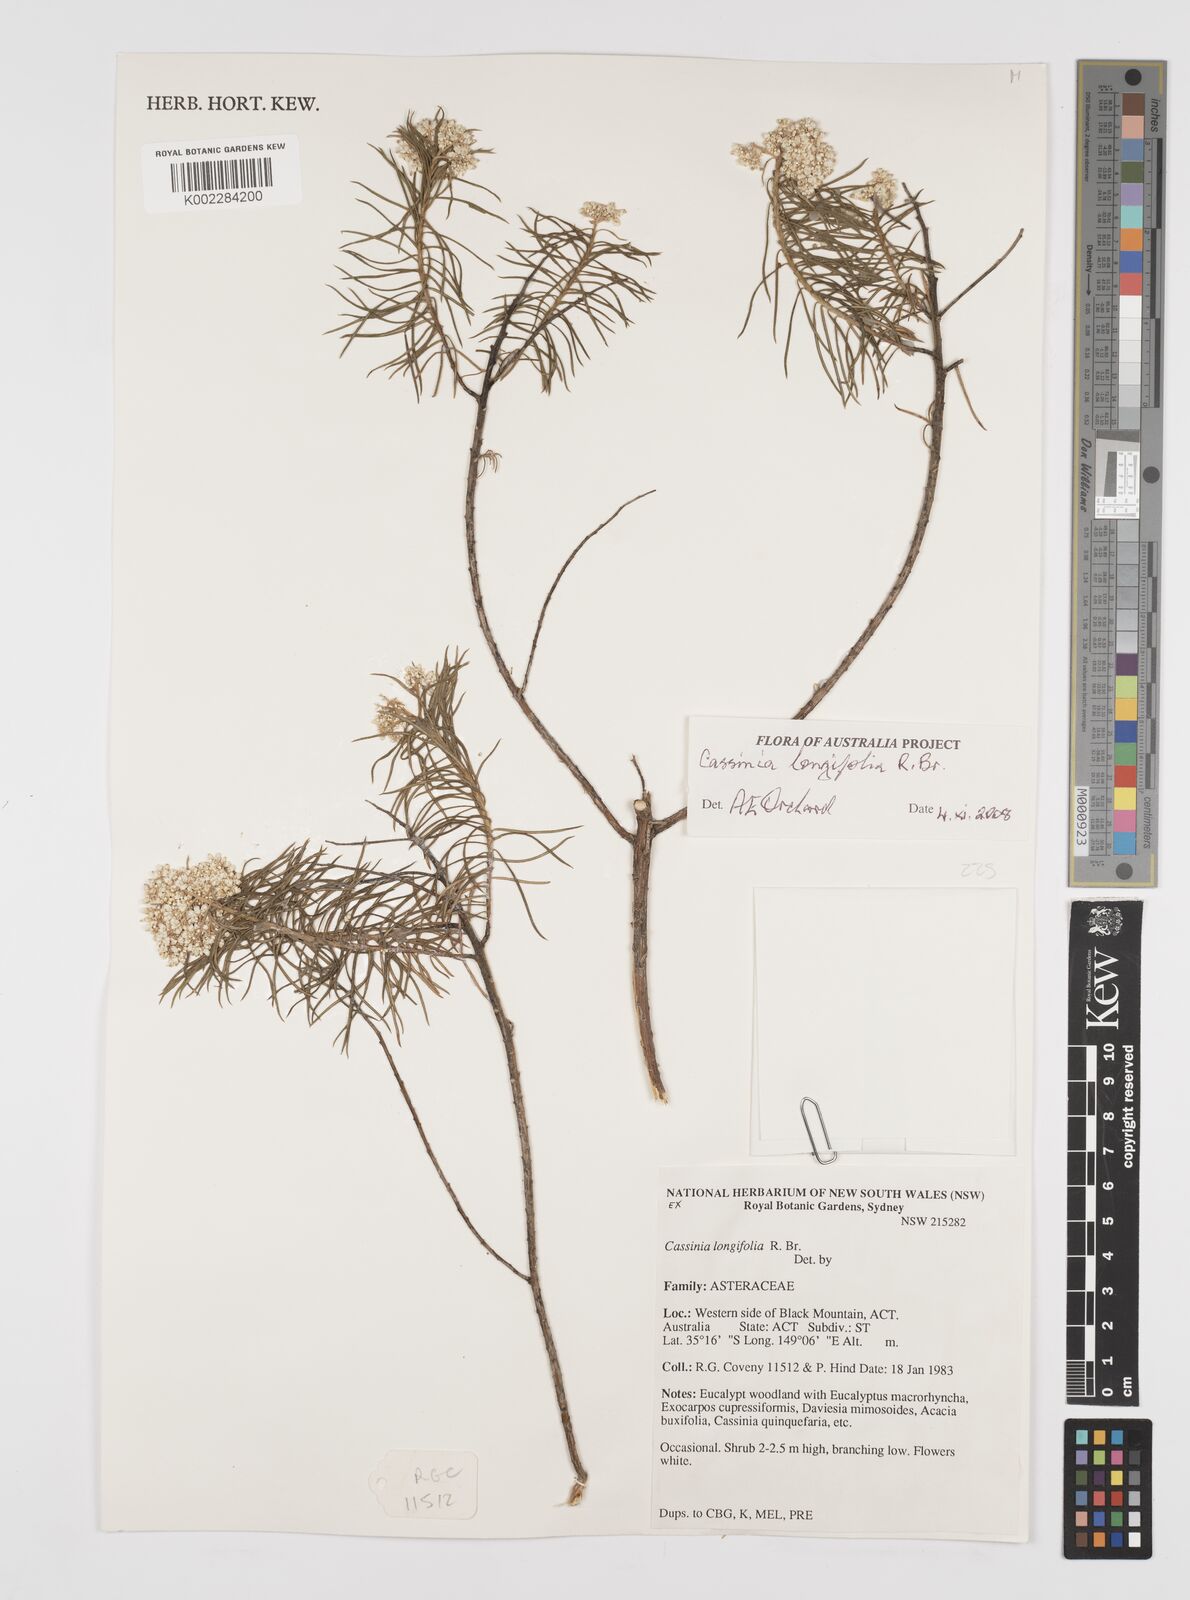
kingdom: Plantae
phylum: Tracheophyta
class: Magnoliopsida
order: Asterales
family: Asteraceae
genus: Cassinia
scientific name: Cassinia longifolia
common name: Longleaf-dogwood
